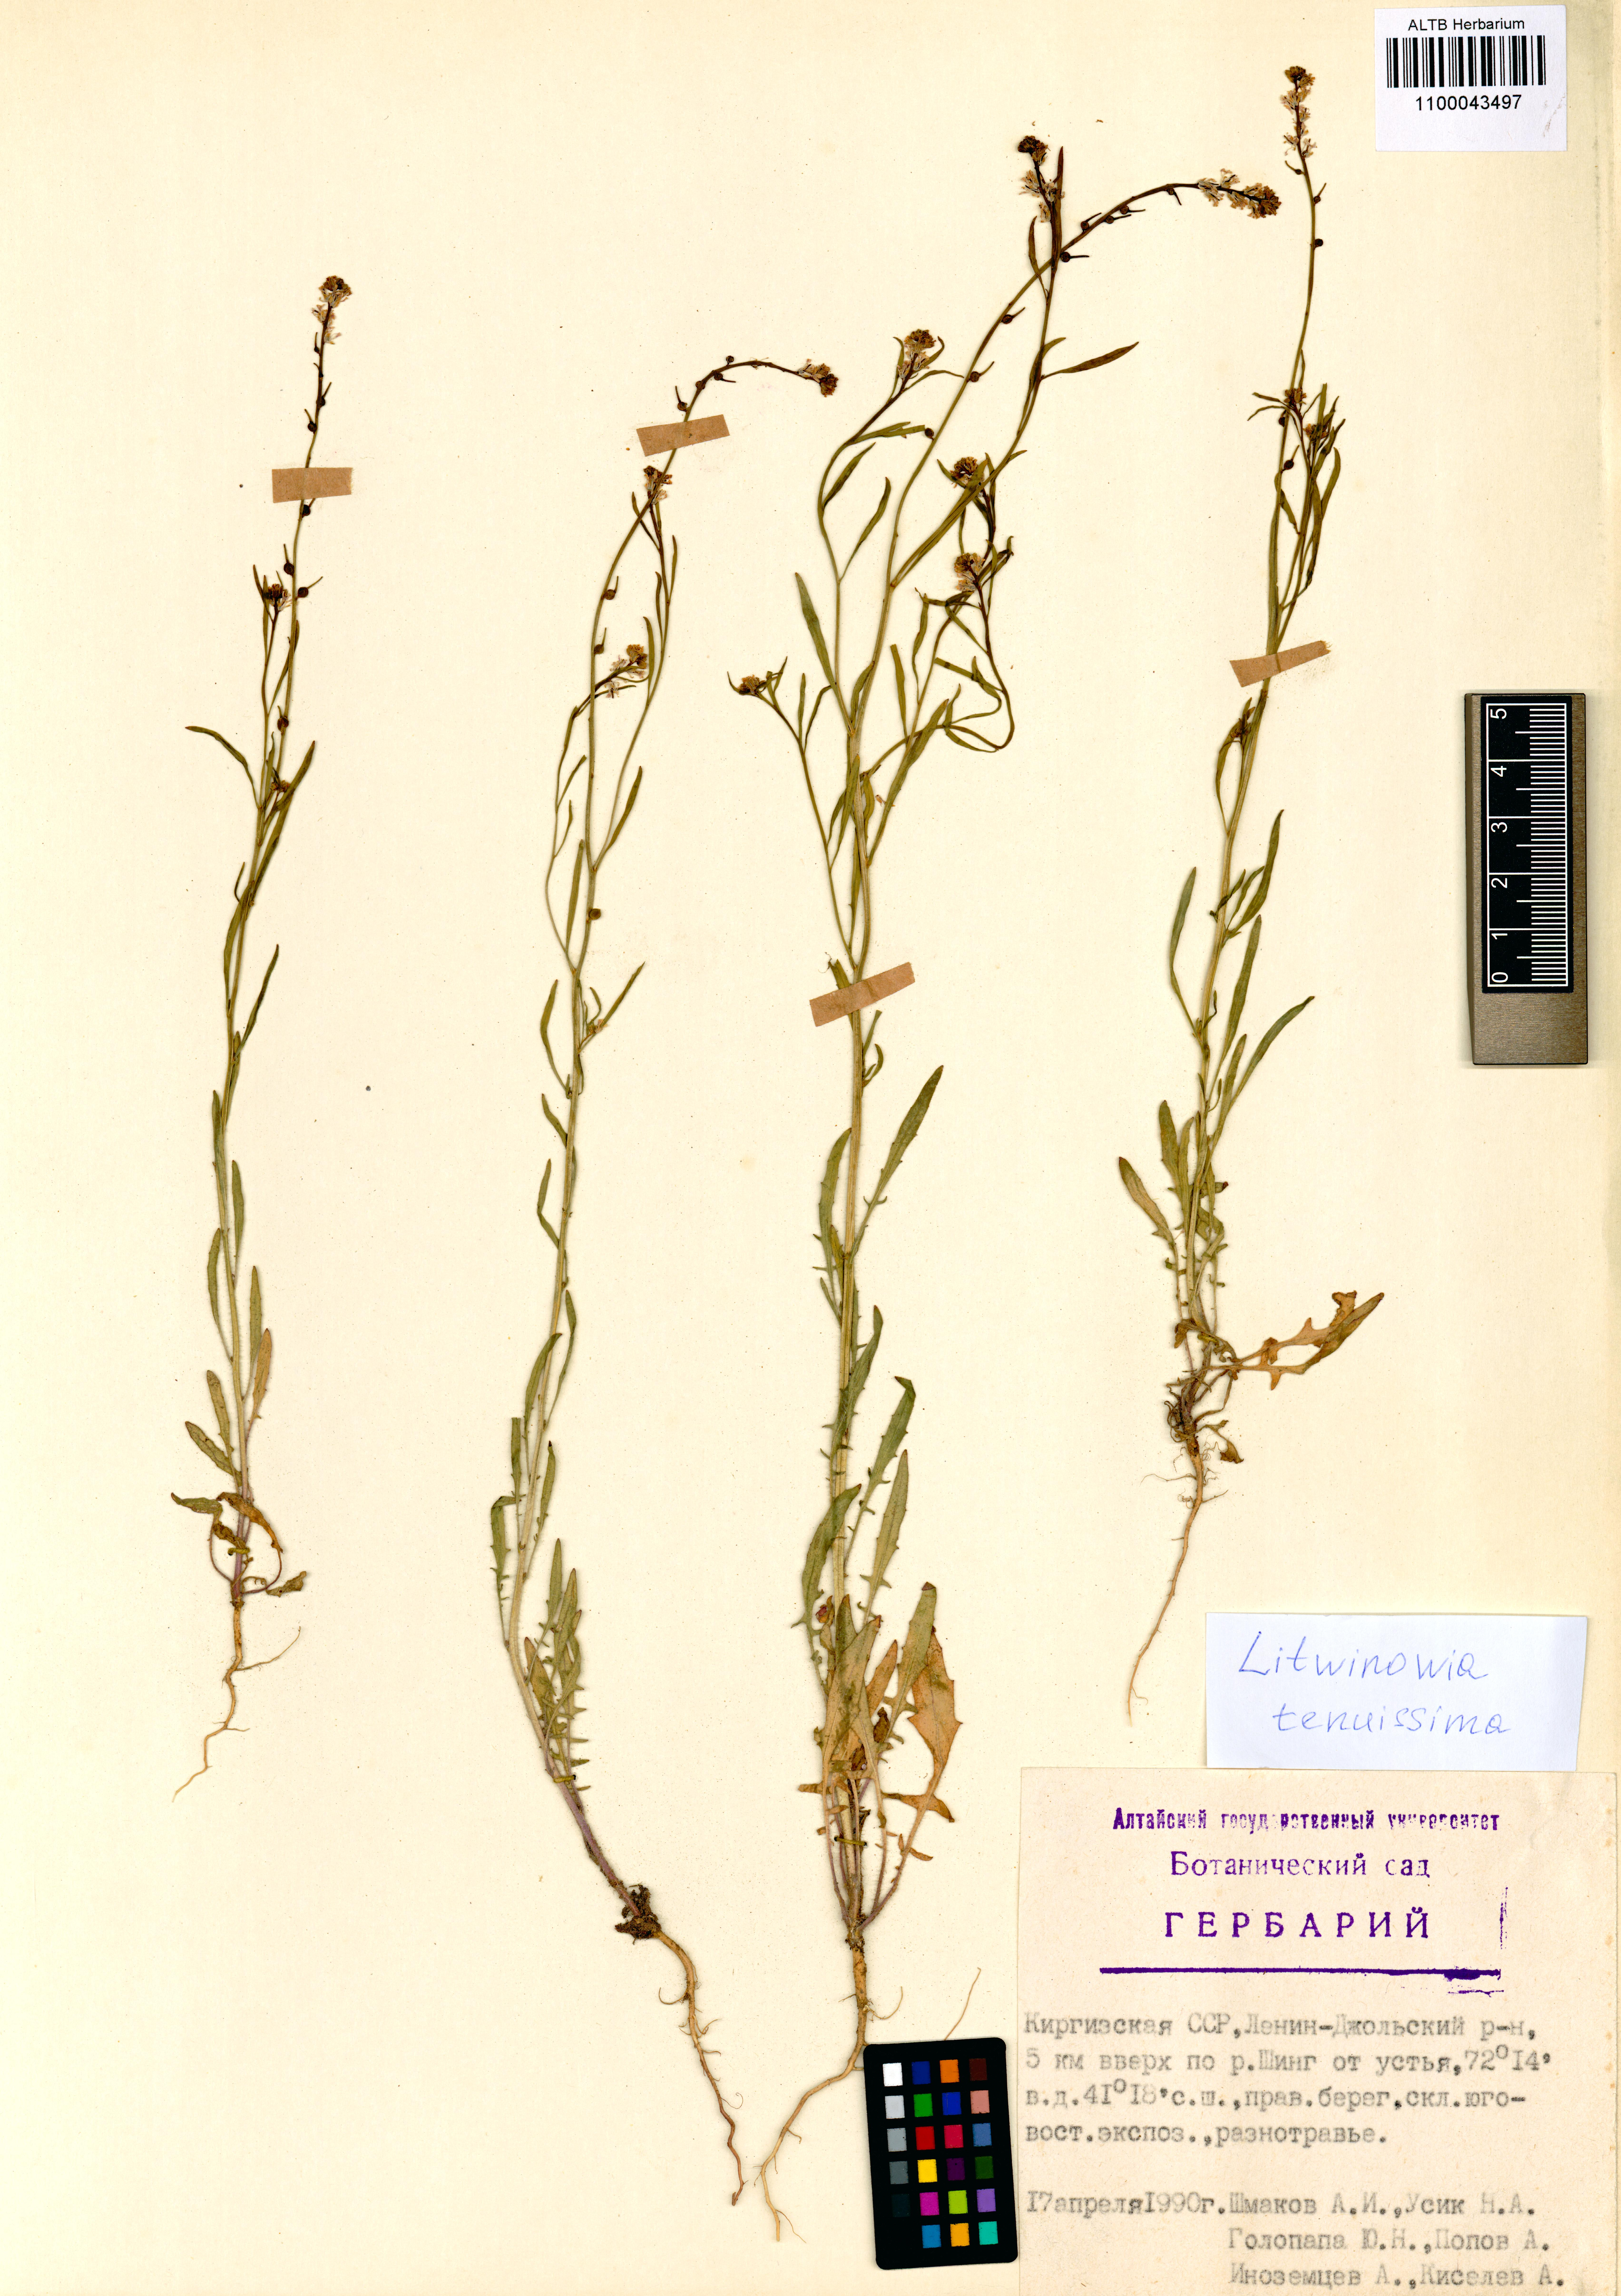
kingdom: Plantae
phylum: Tracheophyta
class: Magnoliopsida
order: Brassicales
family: Brassicaceae
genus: Litwinowia
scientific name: Litwinowia tenuissima
